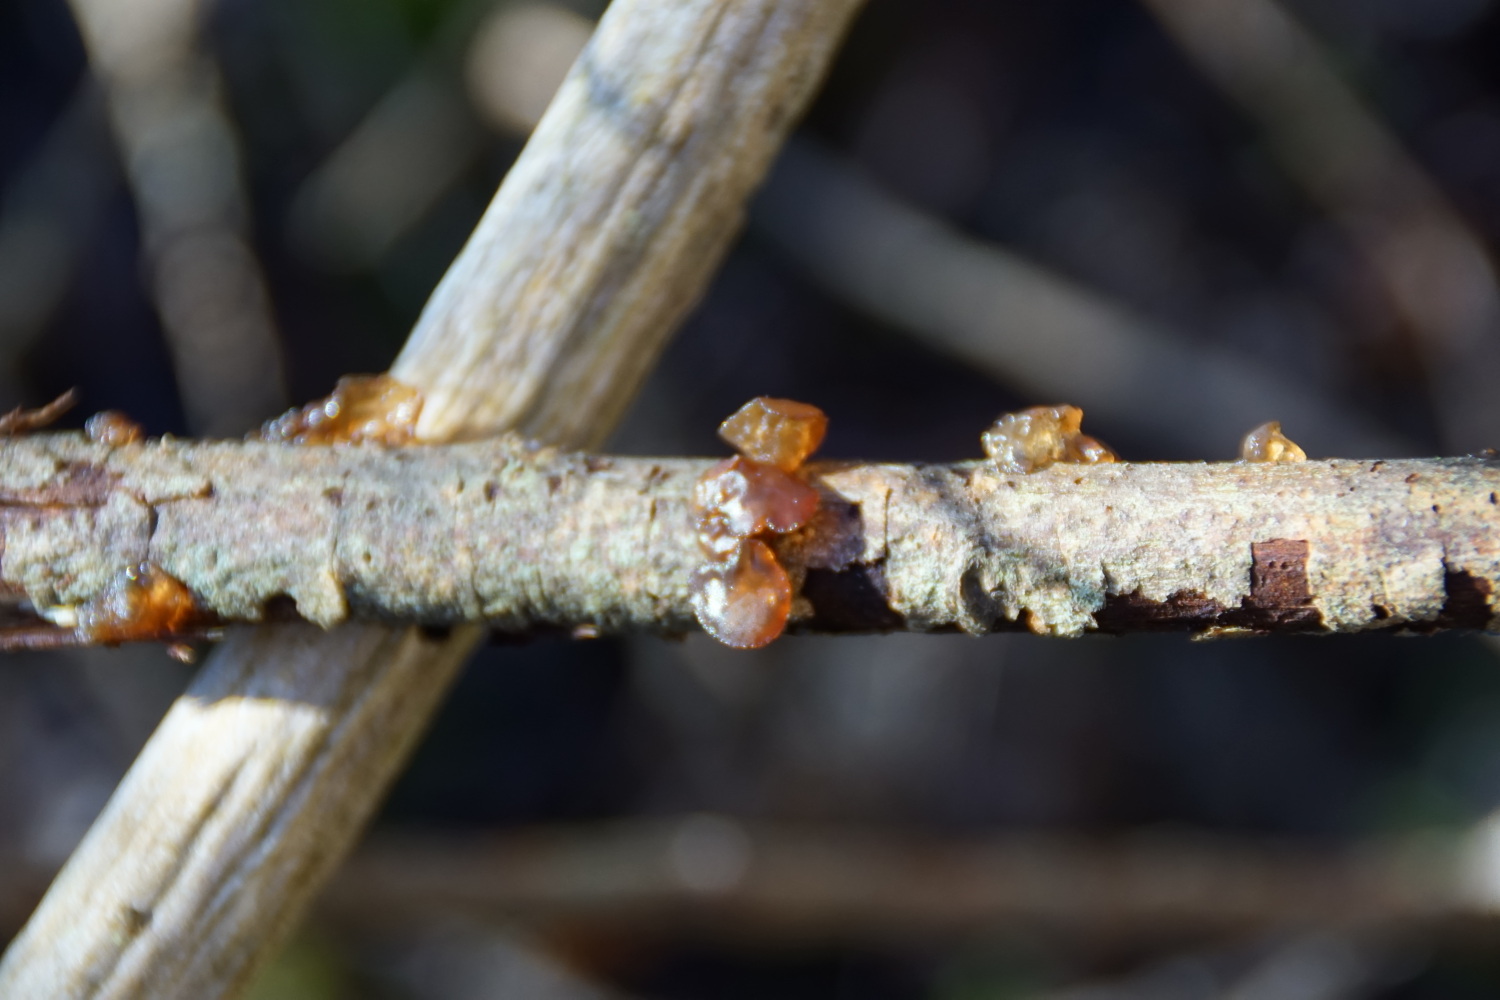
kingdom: Fungi
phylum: Basidiomycota
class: Agaricomycetes
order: Auriculariales
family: Auriculariaceae
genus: Exidia
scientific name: Exidia recisa
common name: pile-bævretop
